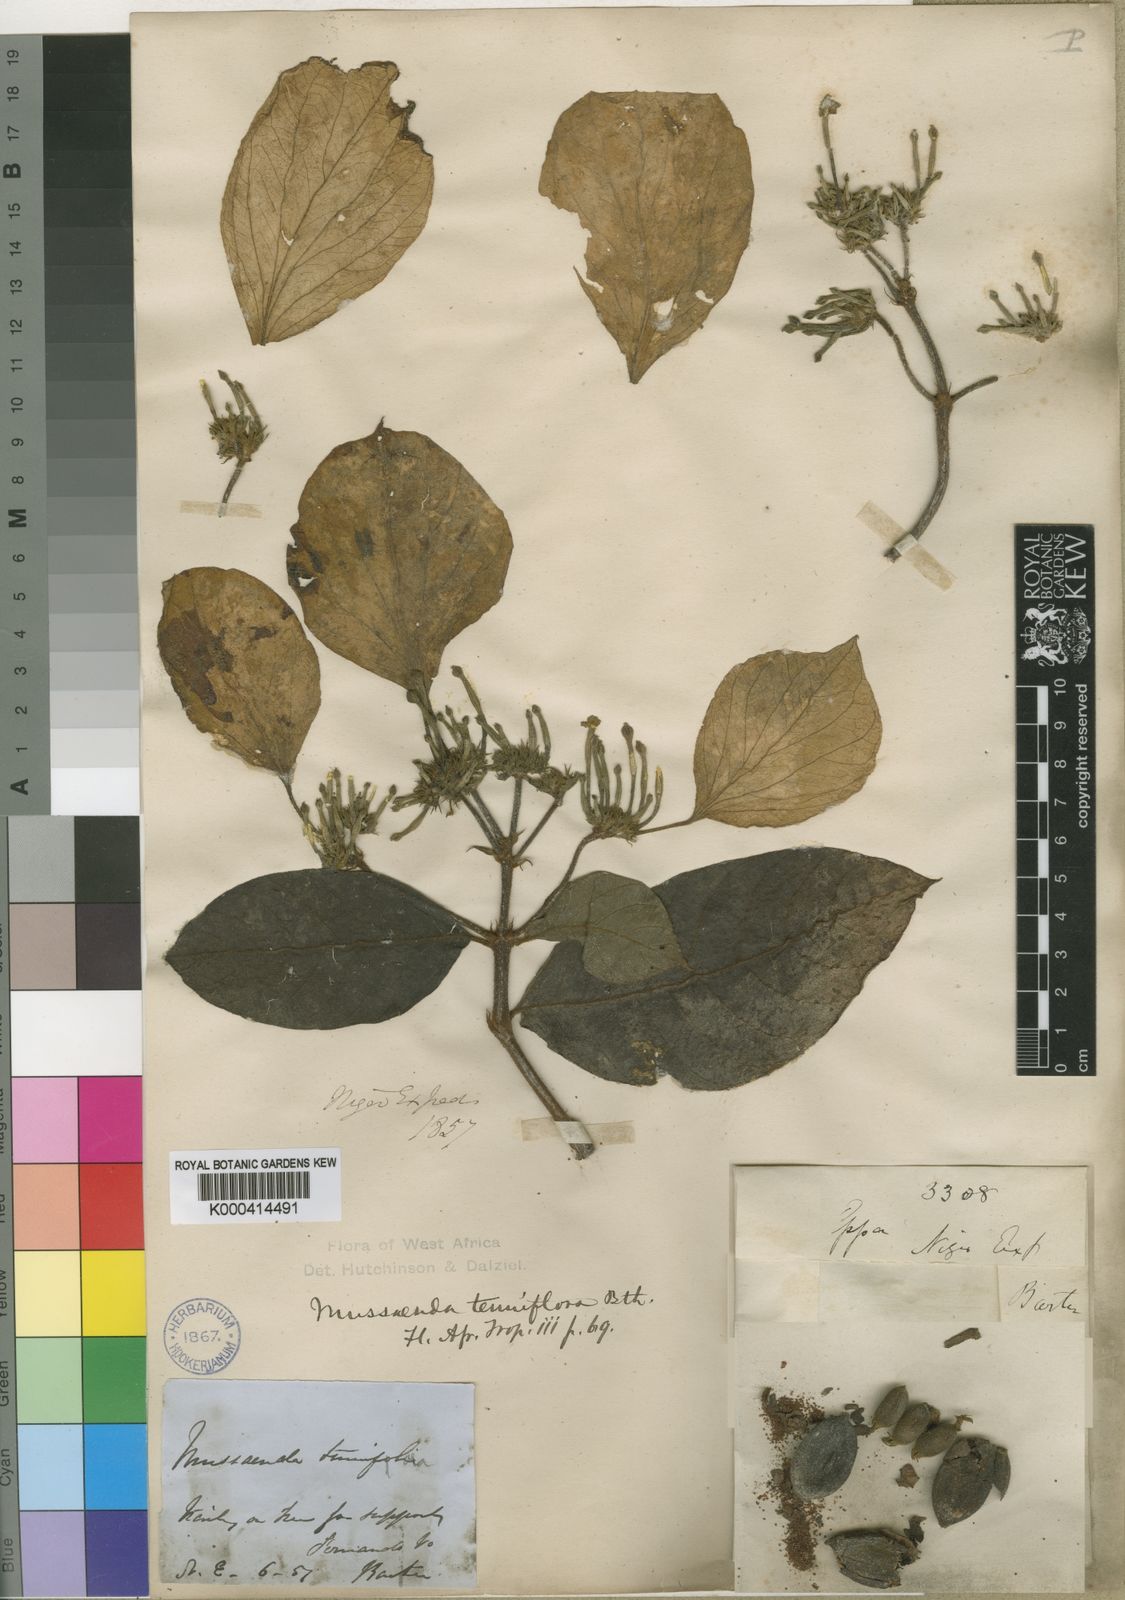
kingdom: Plantae
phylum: Tracheophyta
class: Magnoliopsida
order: Gentianales
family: Rubiaceae
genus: Mussaenda
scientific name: Mussaenda tenuiflora
